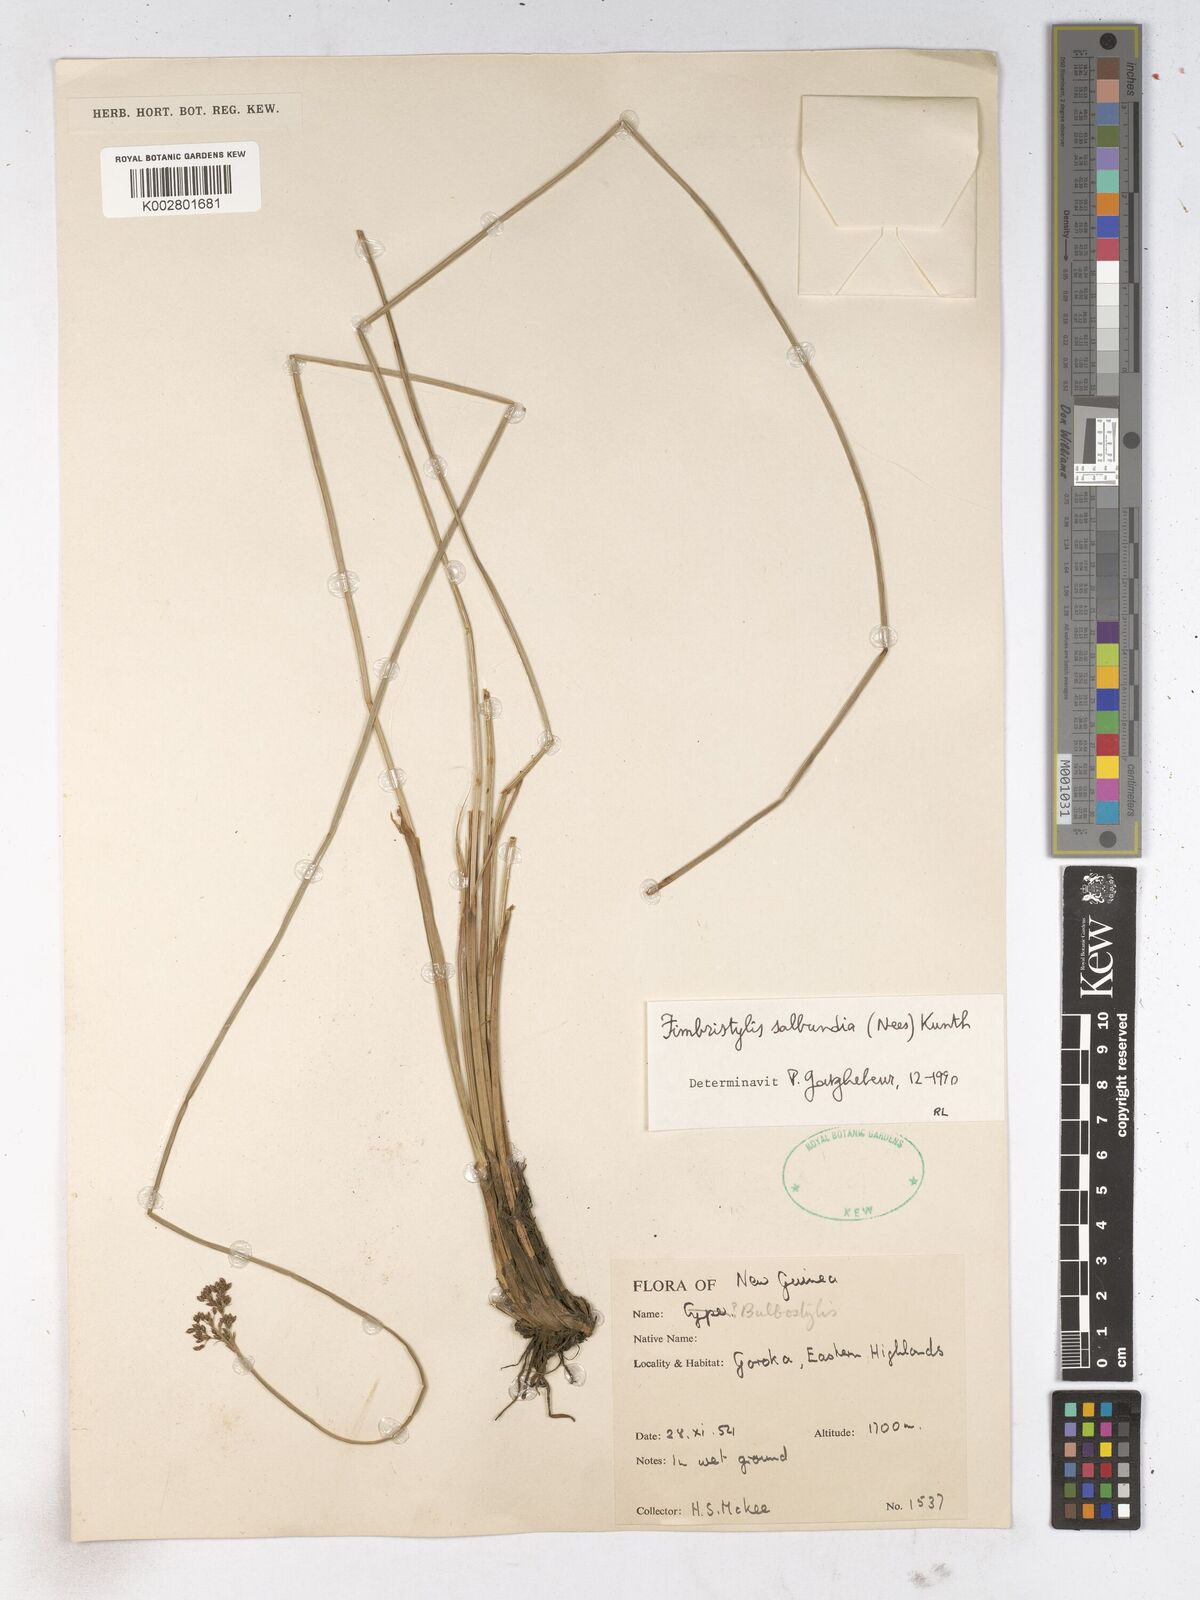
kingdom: Plantae
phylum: Tracheophyta
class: Liliopsida
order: Poales
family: Cyperaceae
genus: Fimbristylis
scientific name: Fimbristylis salbundia
